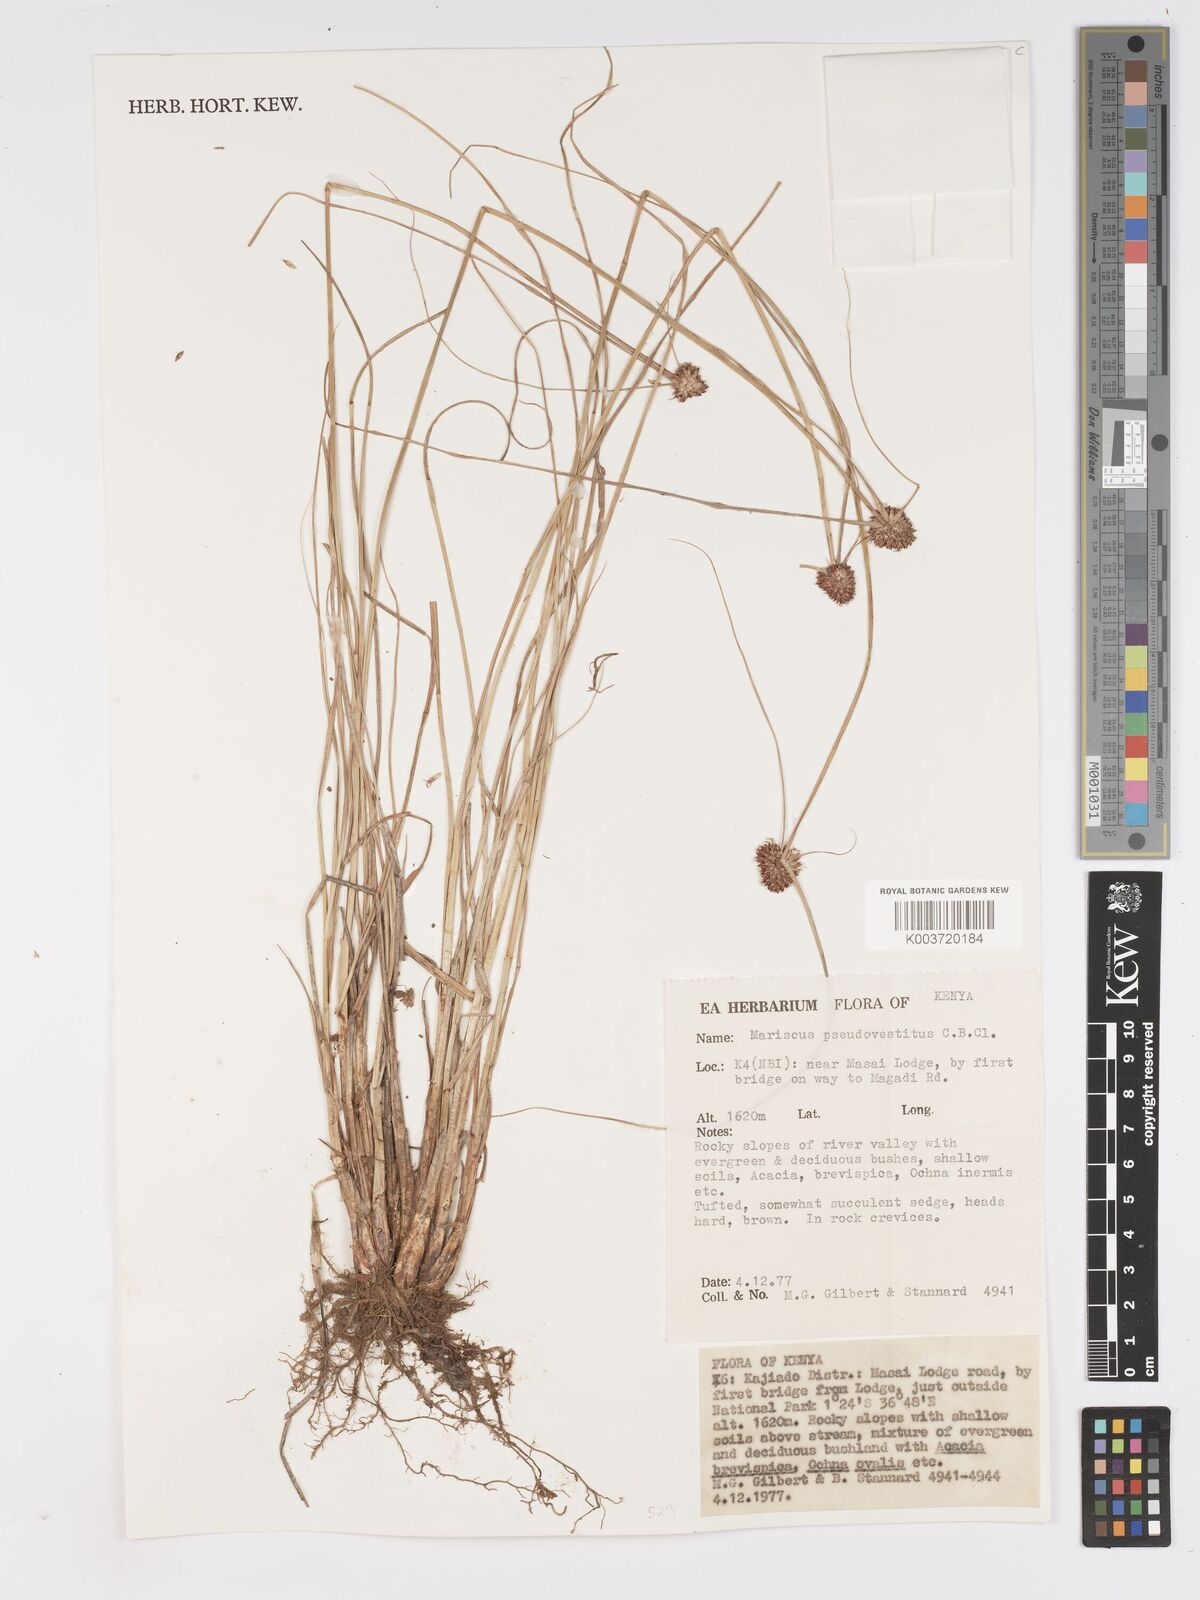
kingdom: Plantae
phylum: Tracheophyta
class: Liliopsida
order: Poales
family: Cyperaceae
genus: Cyperus
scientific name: Cyperus pseudovestitus
